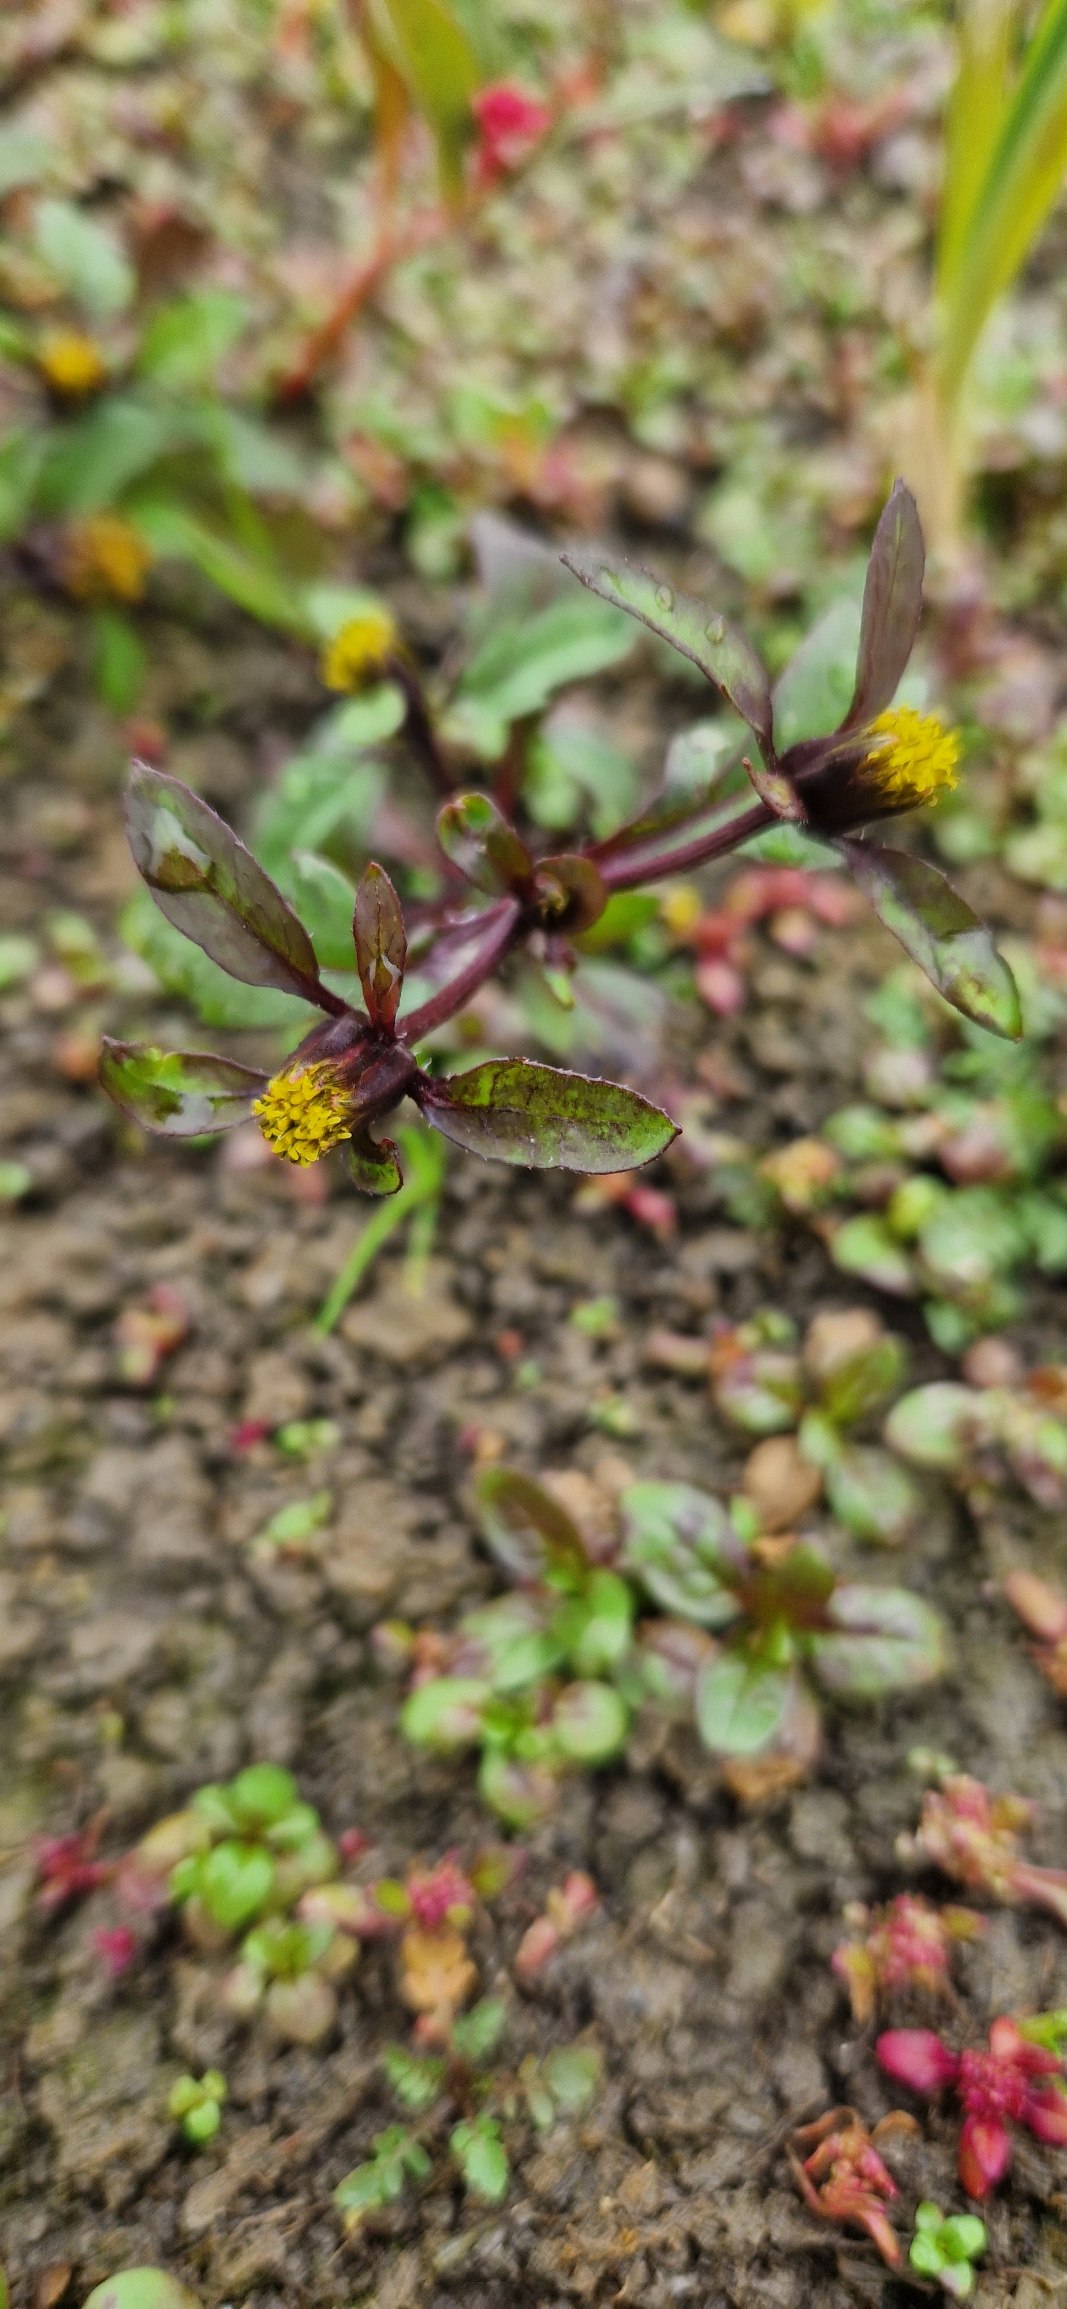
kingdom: Plantae
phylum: Tracheophyta
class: Magnoliopsida
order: Asterales
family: Asteraceae
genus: Bidens
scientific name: Bidens tripartita
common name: Fliget brøndsel
